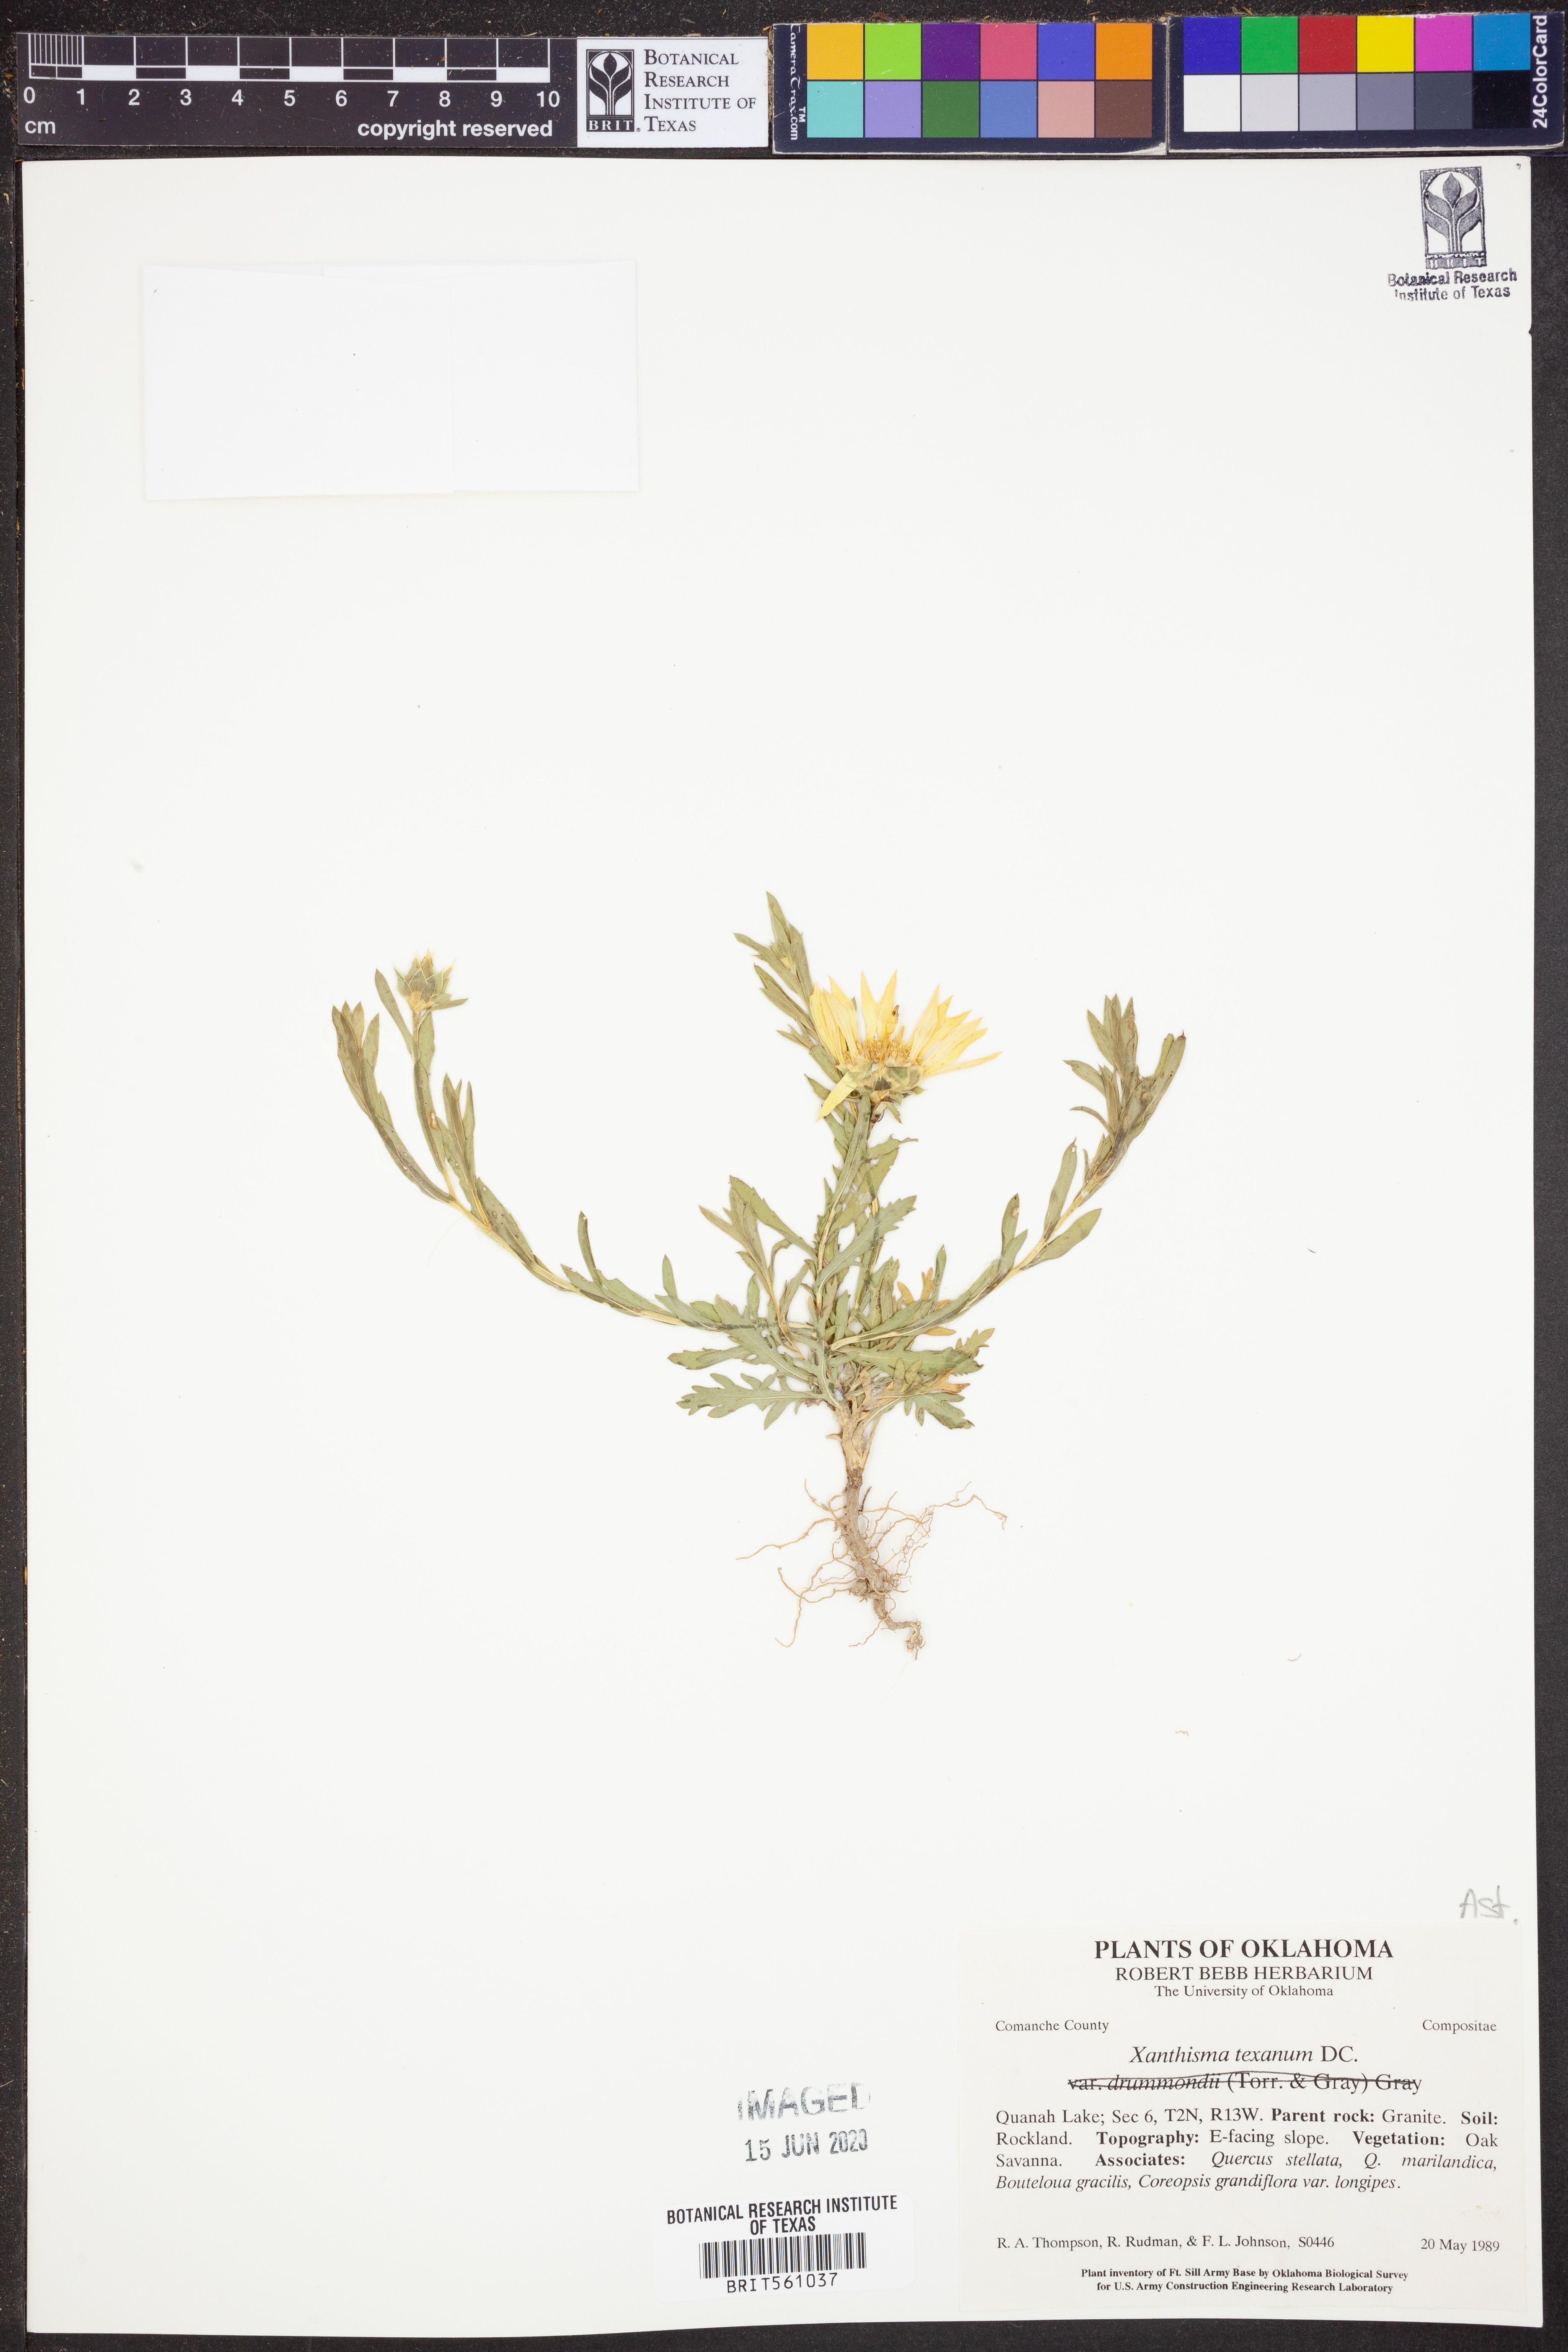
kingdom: Plantae
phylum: Tracheophyta
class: Magnoliopsida
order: Asterales
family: Asteraceae
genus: Xanthisma
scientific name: Xanthisma texanum
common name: Texas sleepy daisy
